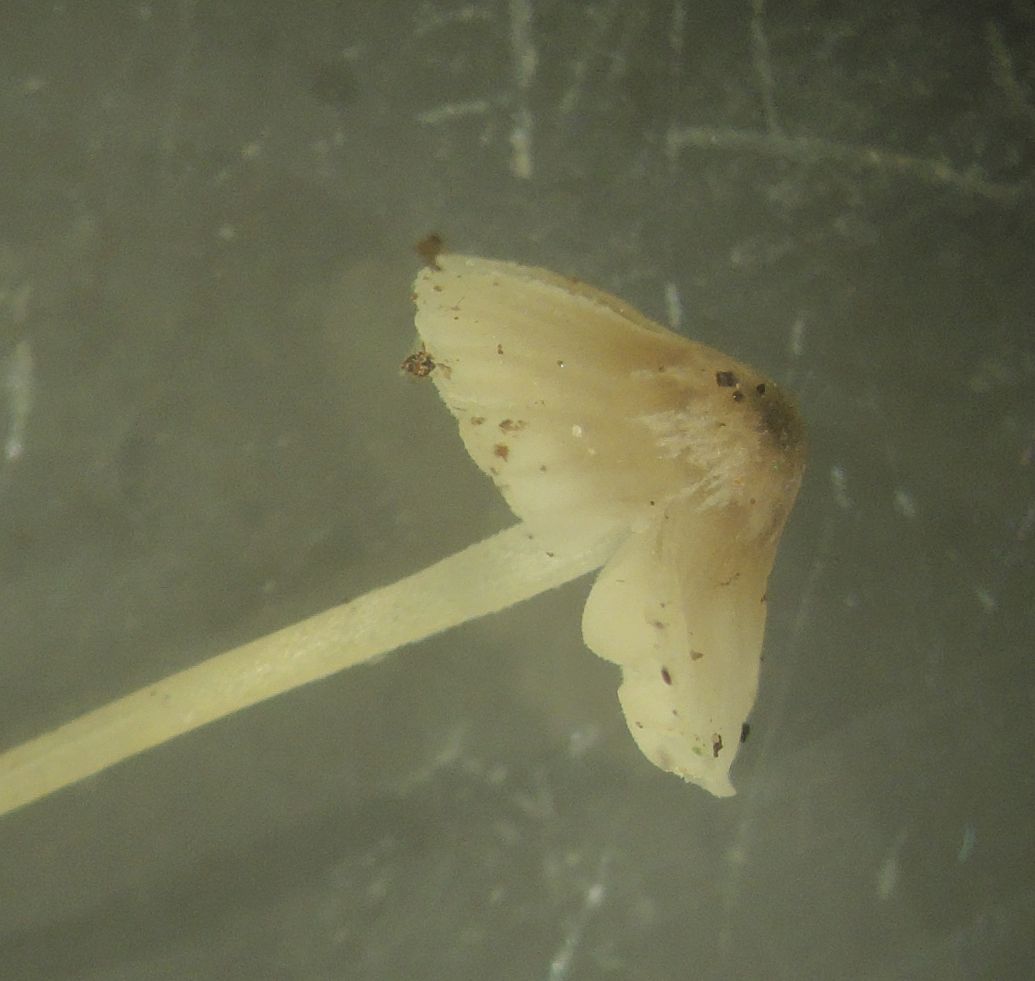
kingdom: Fungi
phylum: Basidiomycota
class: Agaricomycetes
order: Agaricales
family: Porotheleaceae
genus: Phloeomana
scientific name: Phloeomana hiemalis
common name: sen huesvamp
